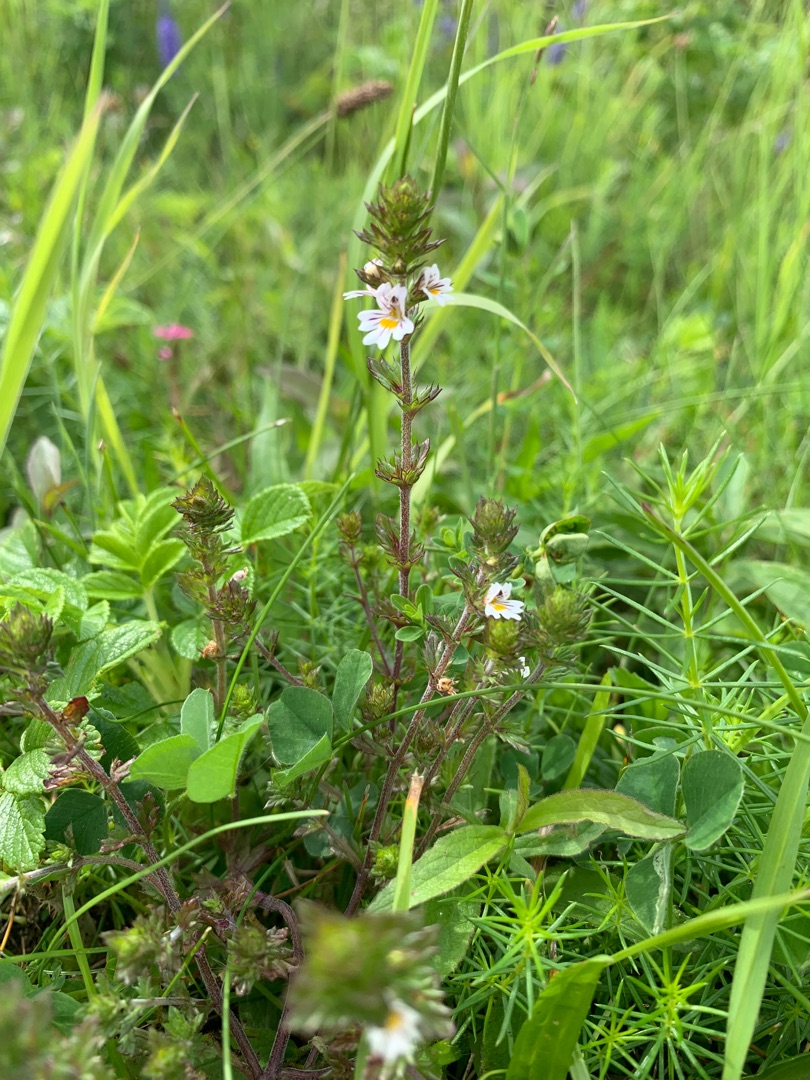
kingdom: Plantae
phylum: Tracheophyta
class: Magnoliopsida
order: Lamiales
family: Orobanchaceae
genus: Euphrasia
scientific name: Euphrasia
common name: Øjentrøstslægten
